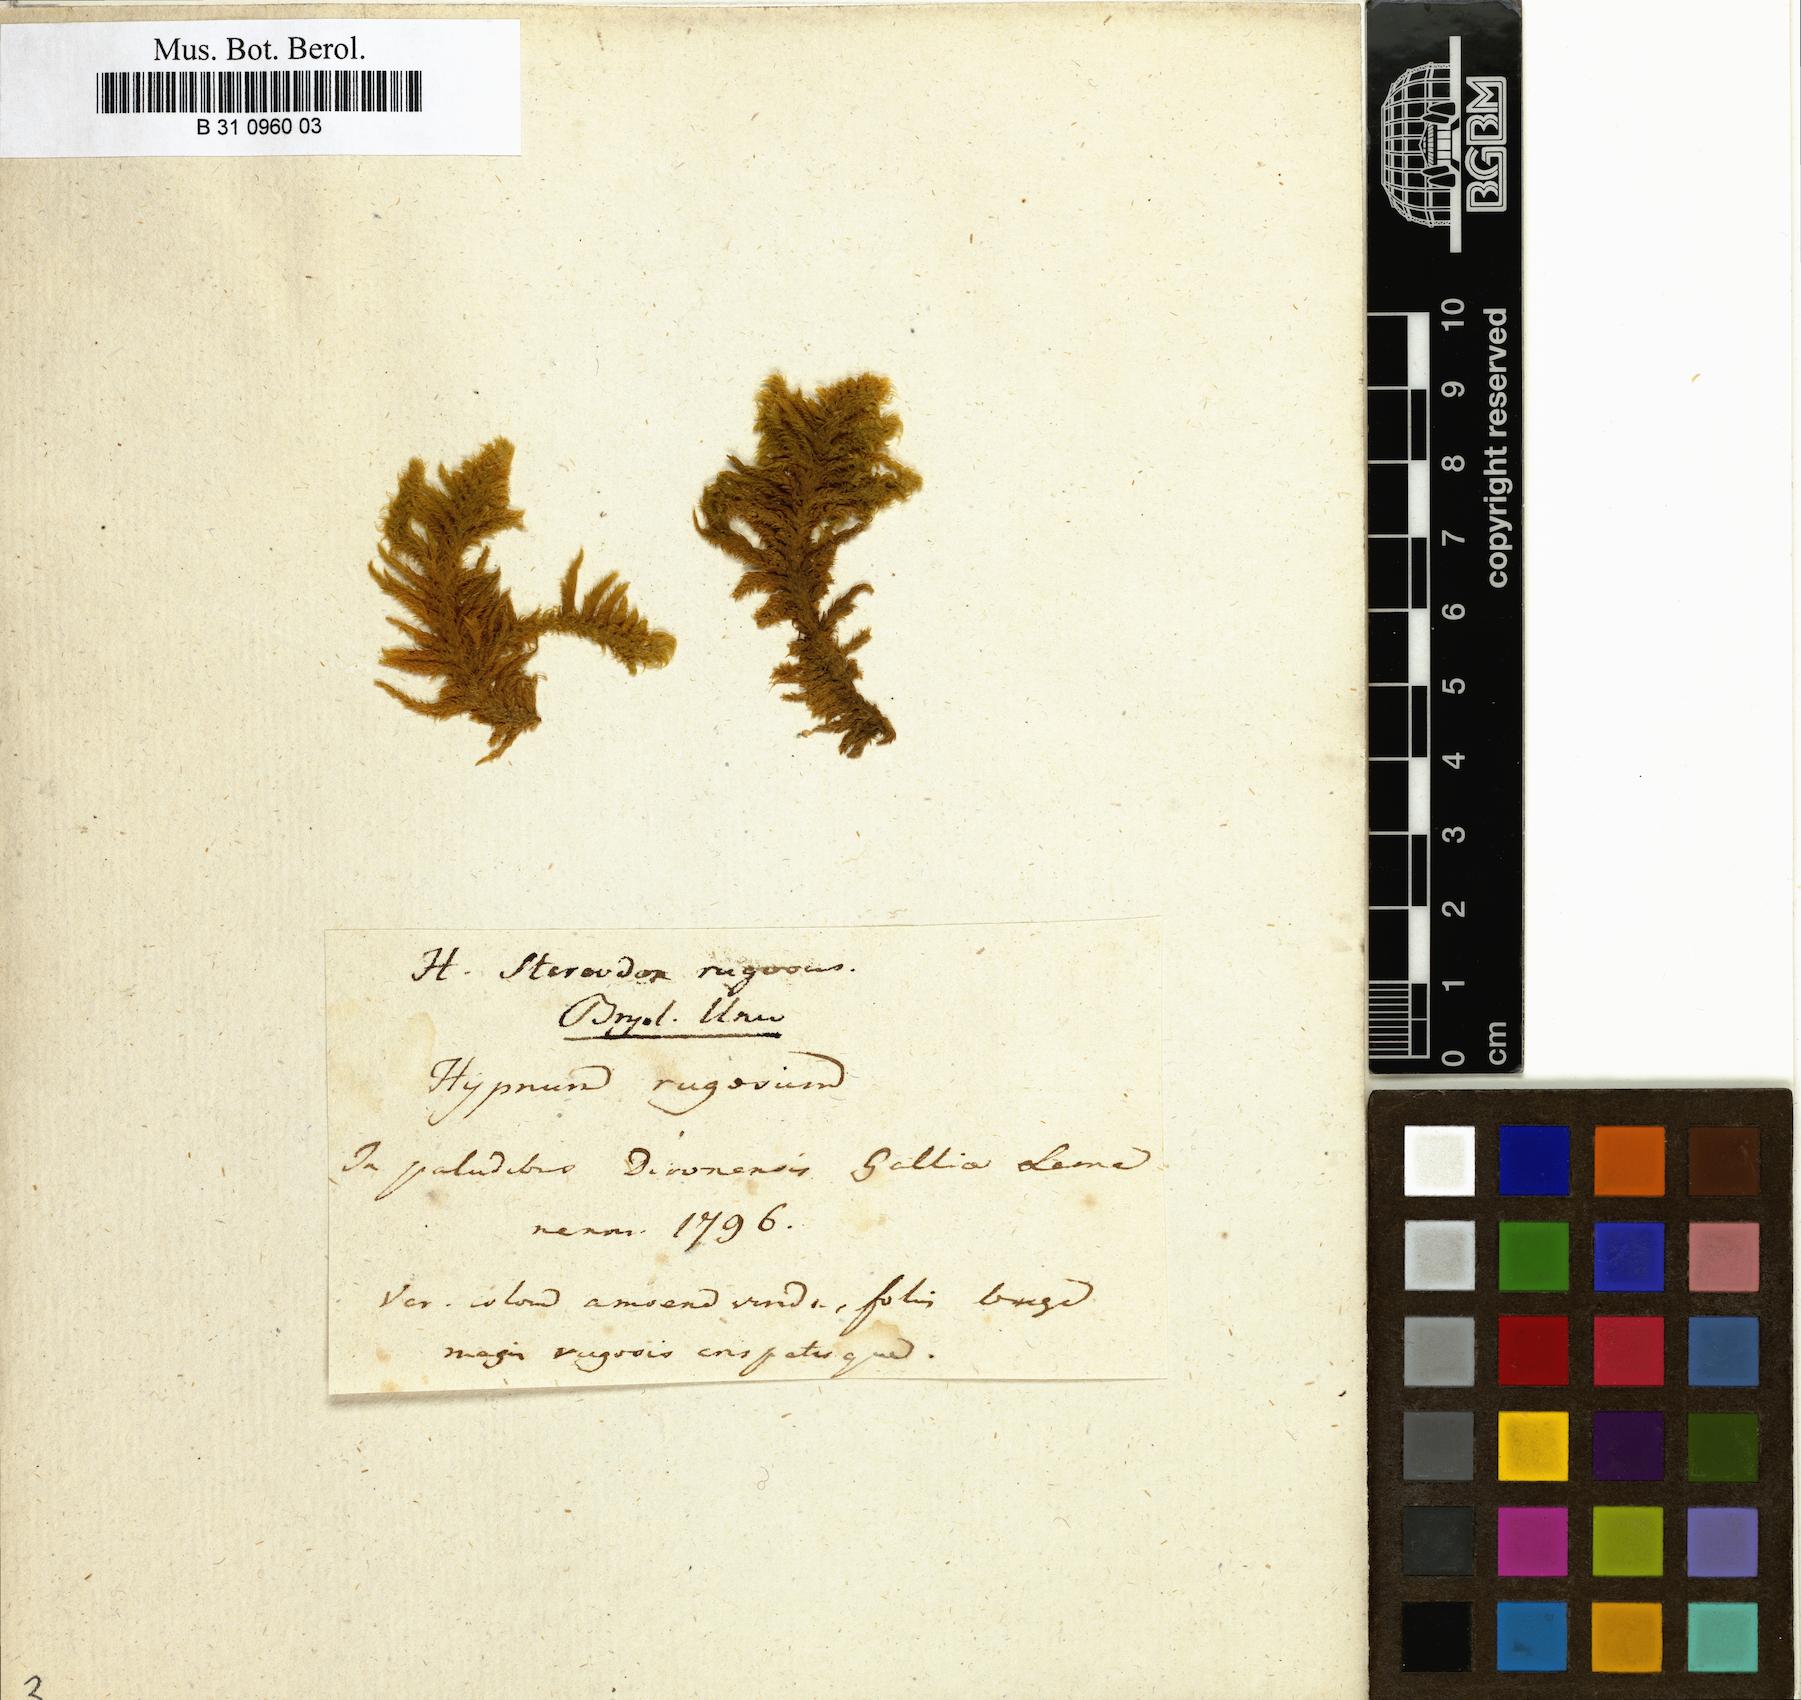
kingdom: Plantae
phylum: Bryophyta
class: Bryopsida
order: Hypnales
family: Rhytidiaceae
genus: Rhytidium
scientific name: Rhytidium rugosum
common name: Wrinkle-leaved moss
